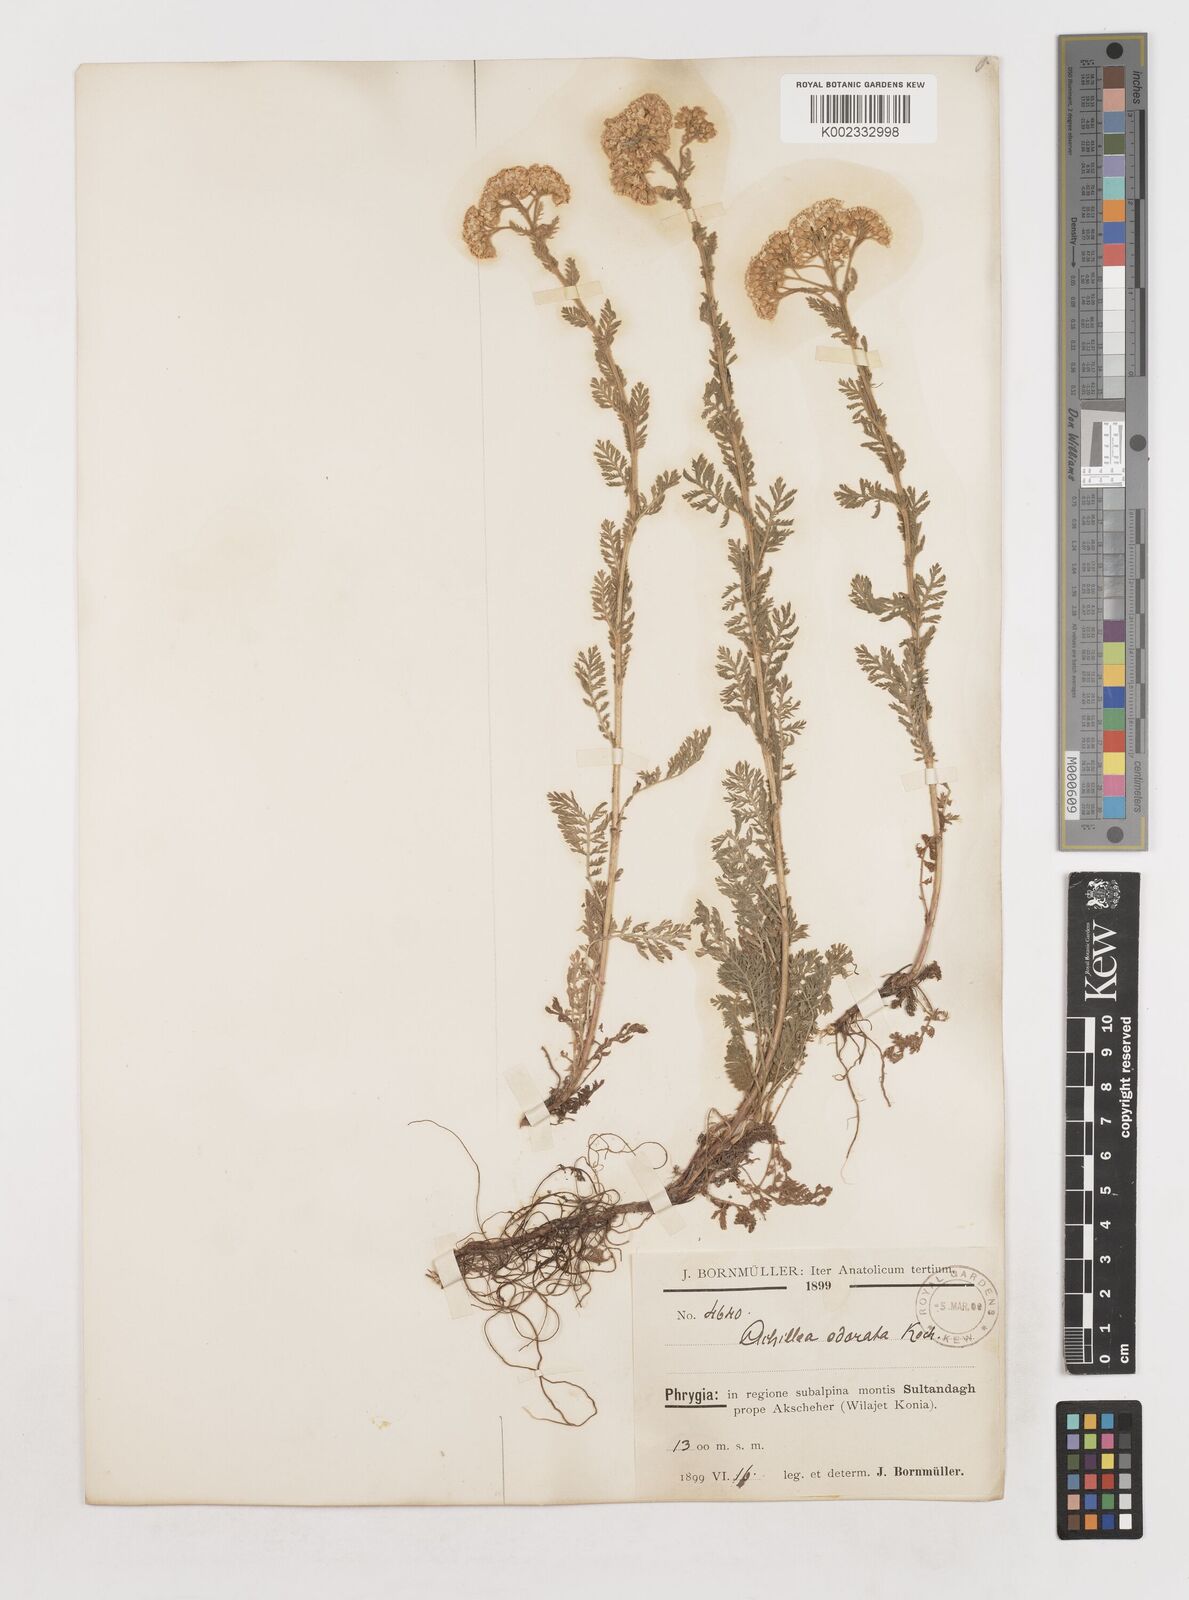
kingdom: Plantae
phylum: Tracheophyta
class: Magnoliopsida
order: Asterales
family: Asteraceae
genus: Achillea
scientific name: Achillea
